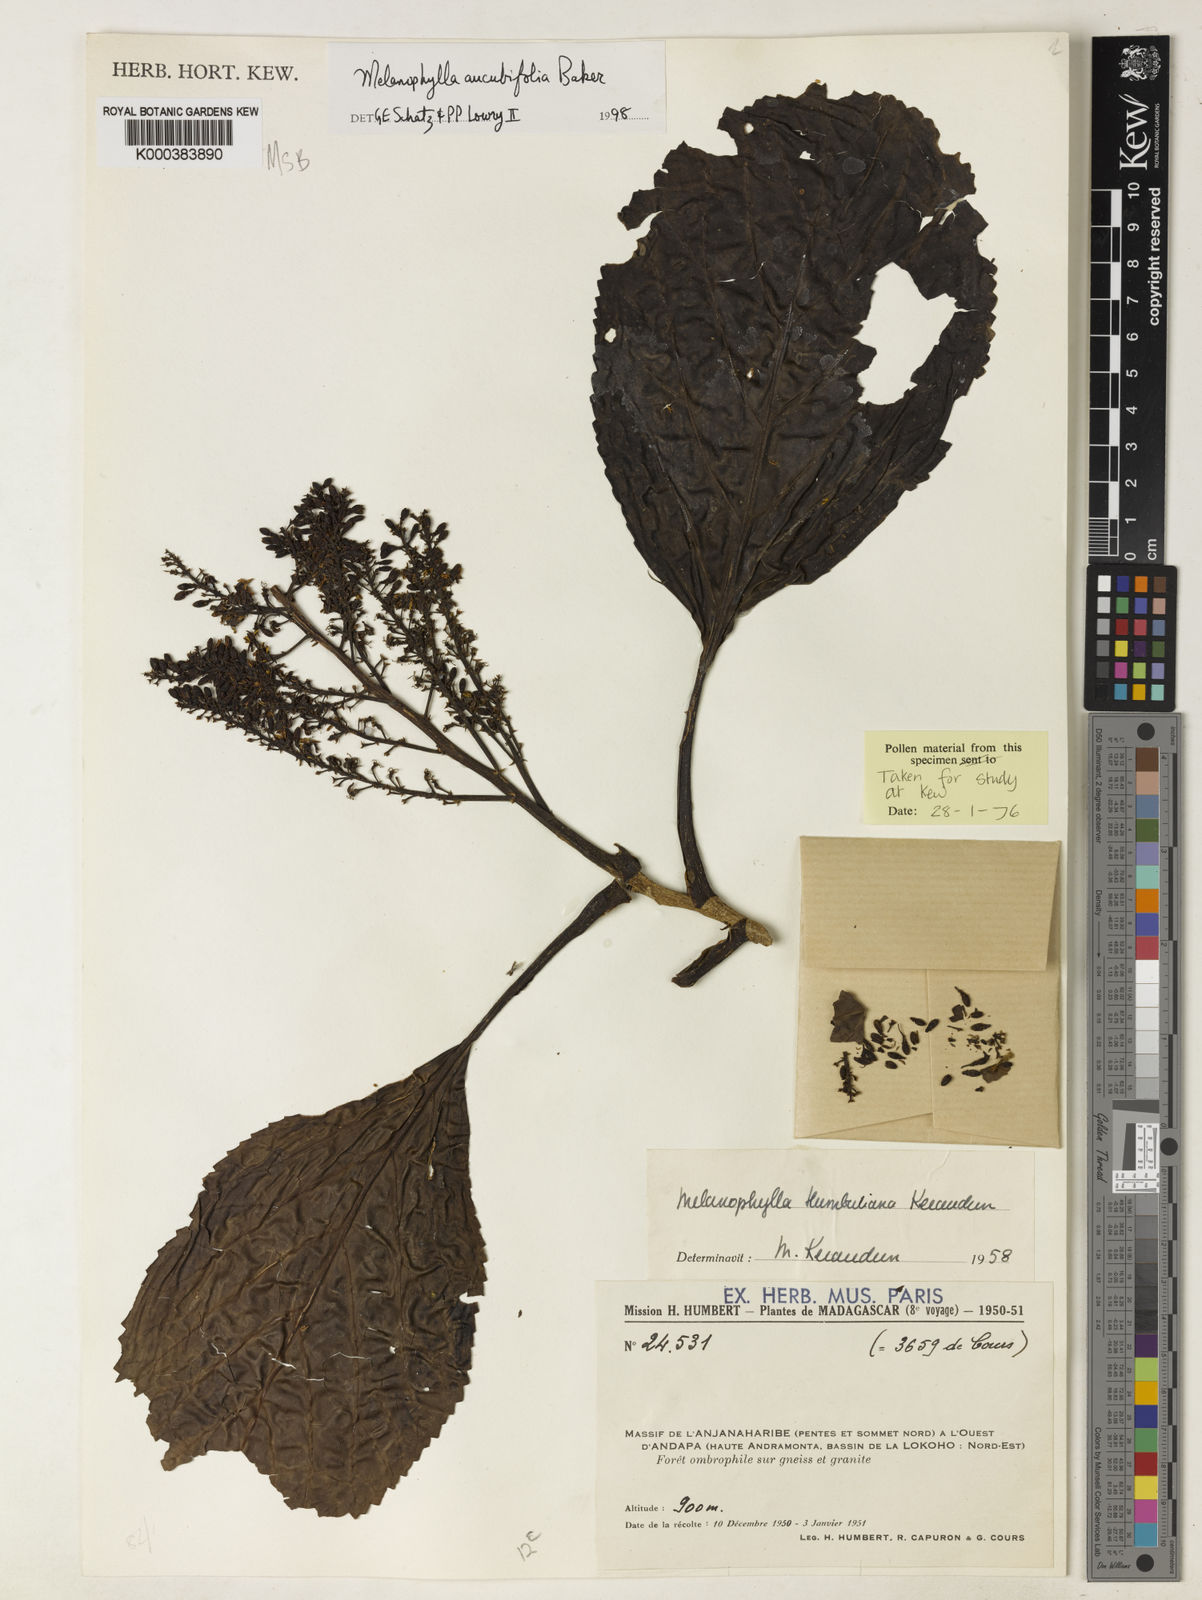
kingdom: Plantae
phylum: Tracheophyta
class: Magnoliopsida
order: Apiales
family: Torricelliaceae
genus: Melanophylla
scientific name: Melanophylla aucubifolia
